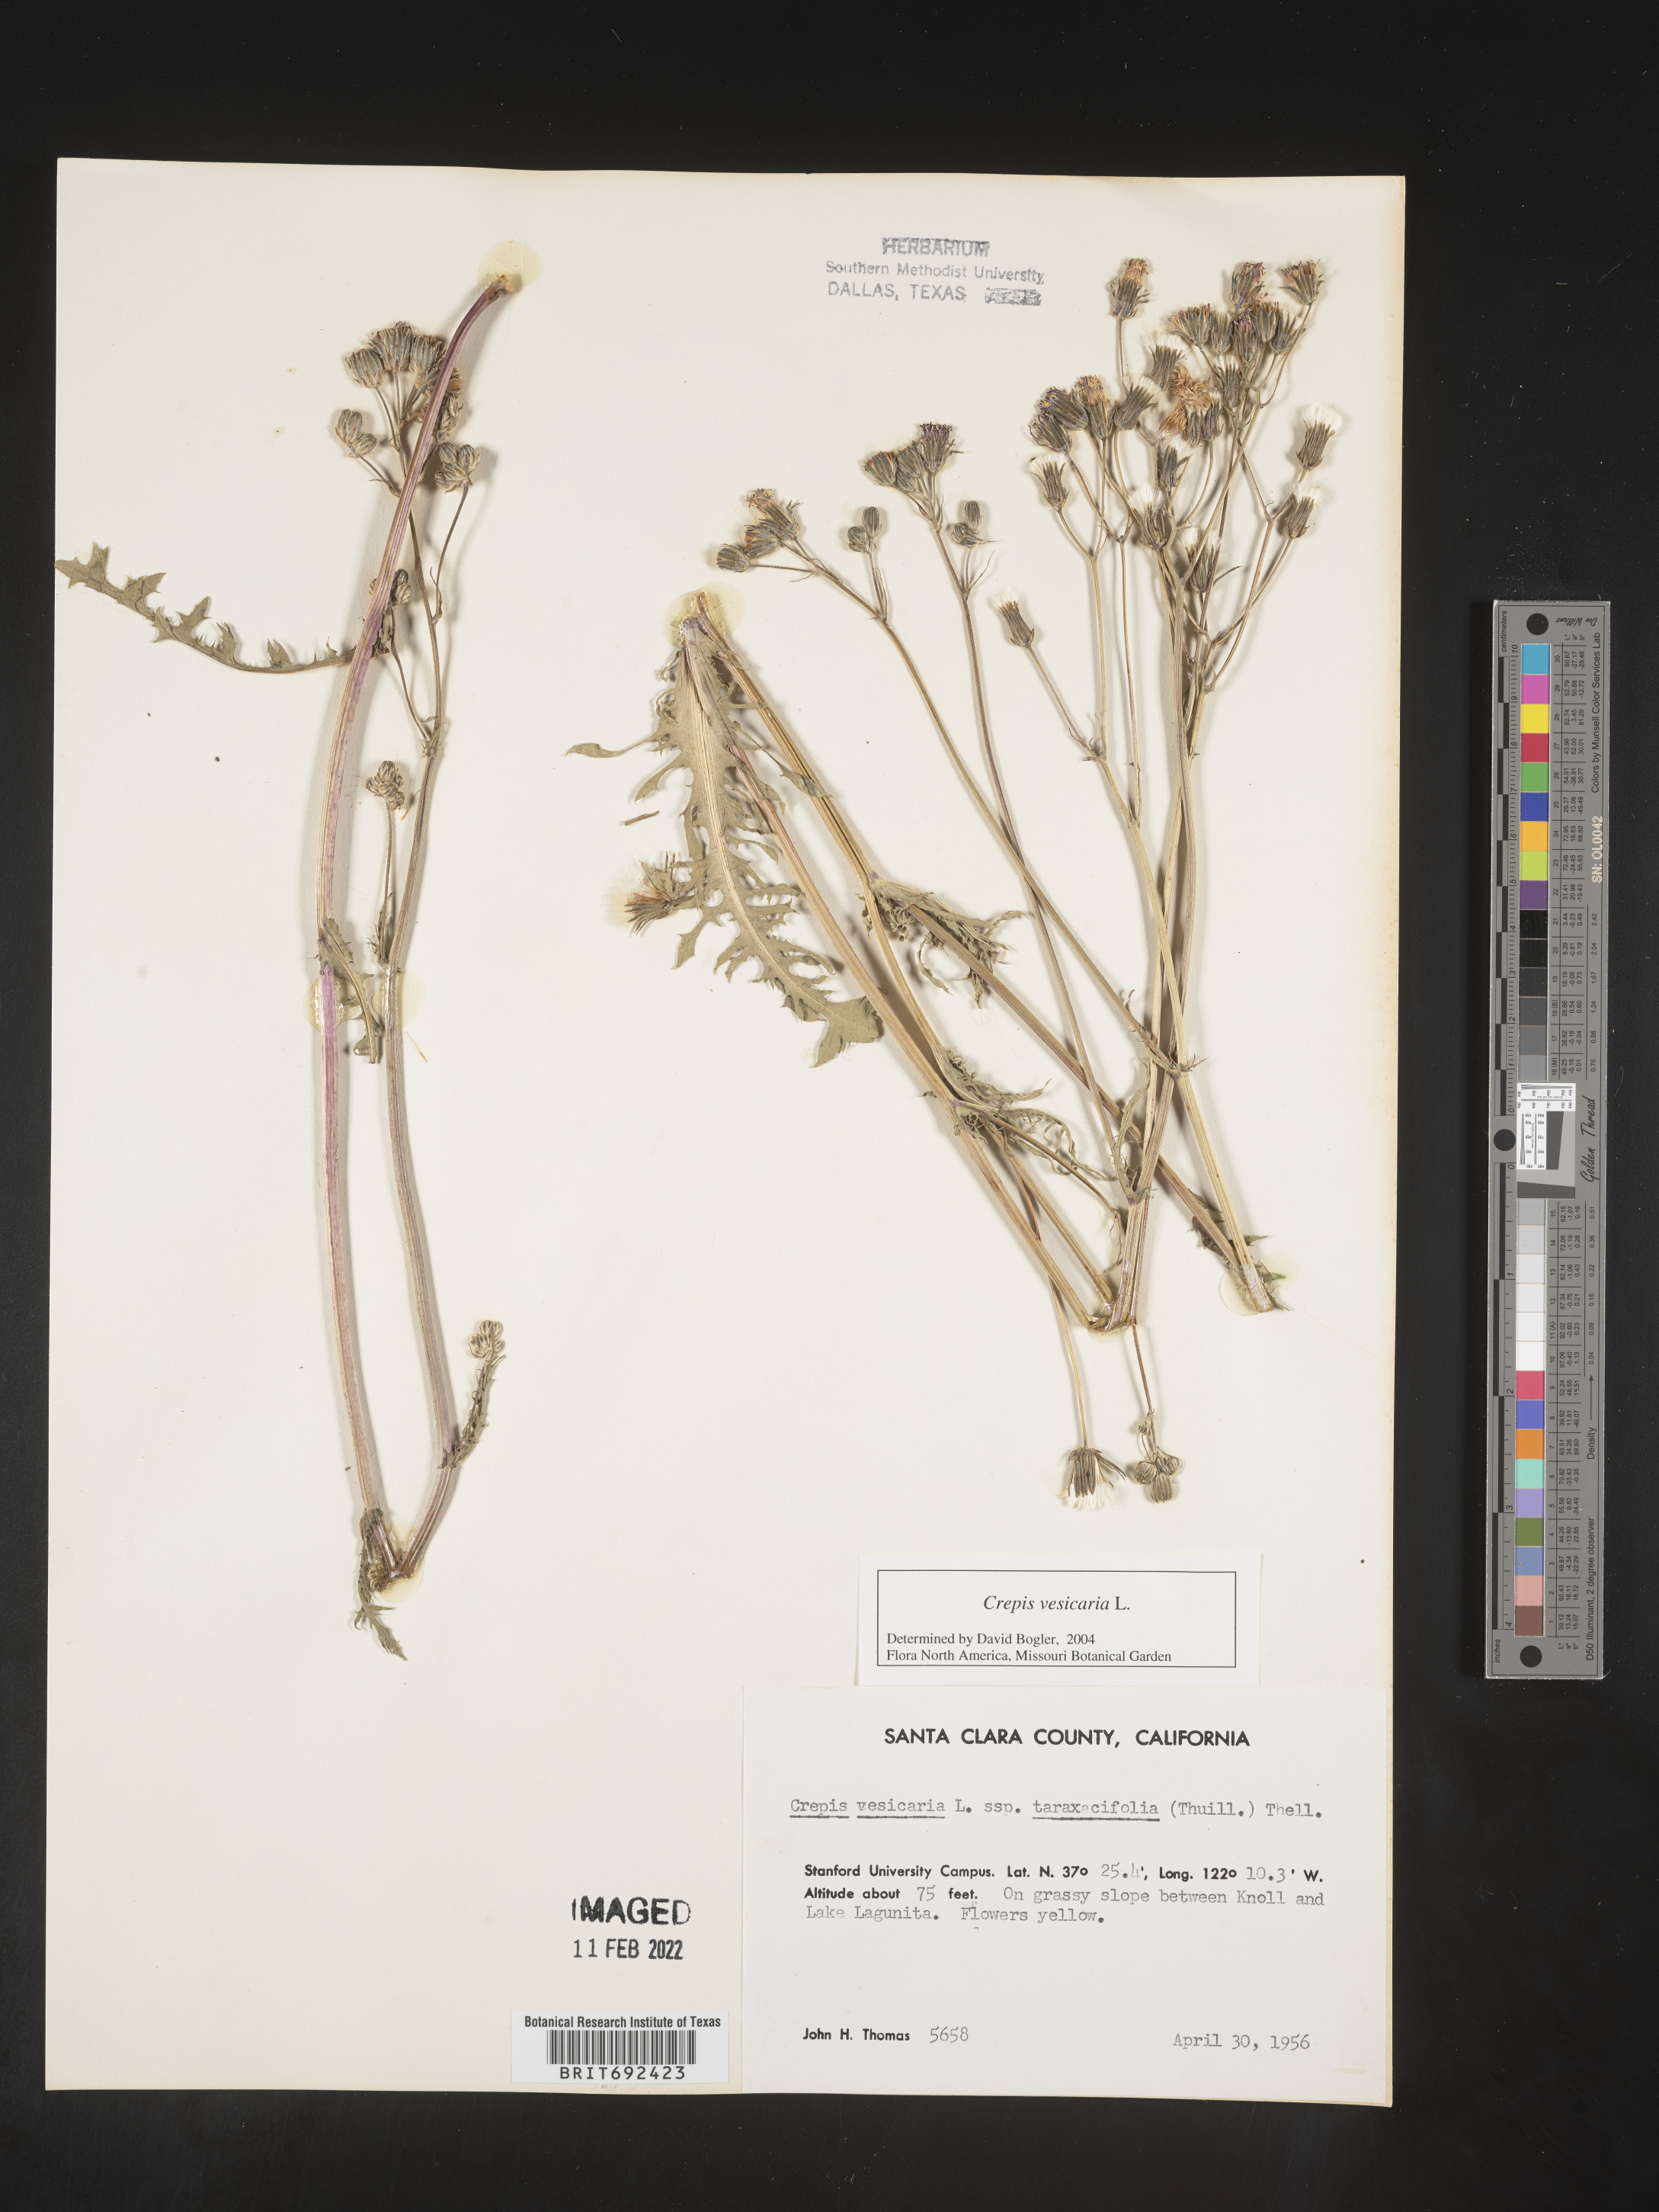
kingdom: Plantae
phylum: Tracheophyta
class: Magnoliopsida
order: Asterales
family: Asteraceae
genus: Crepis
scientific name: Crepis
